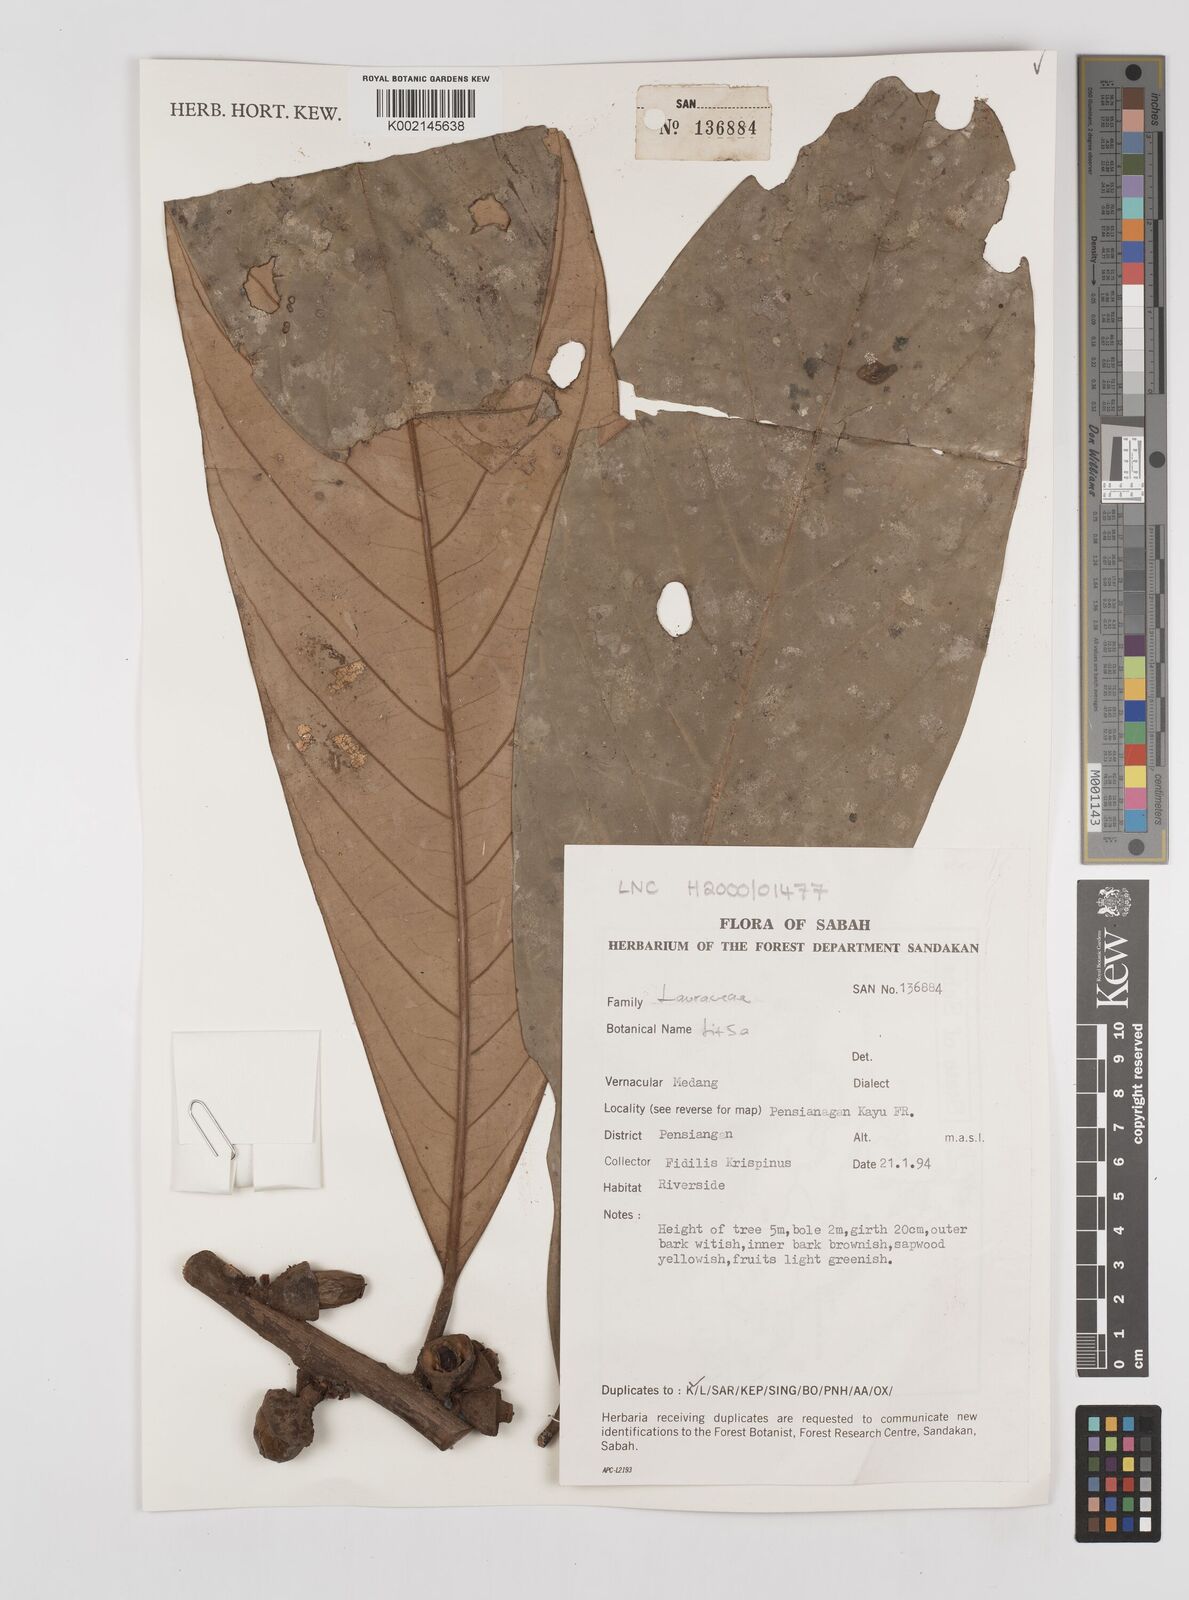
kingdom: Plantae
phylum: Tracheophyta
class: Magnoliopsida
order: Laurales
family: Lauraceae
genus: Litsea
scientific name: Litsea
